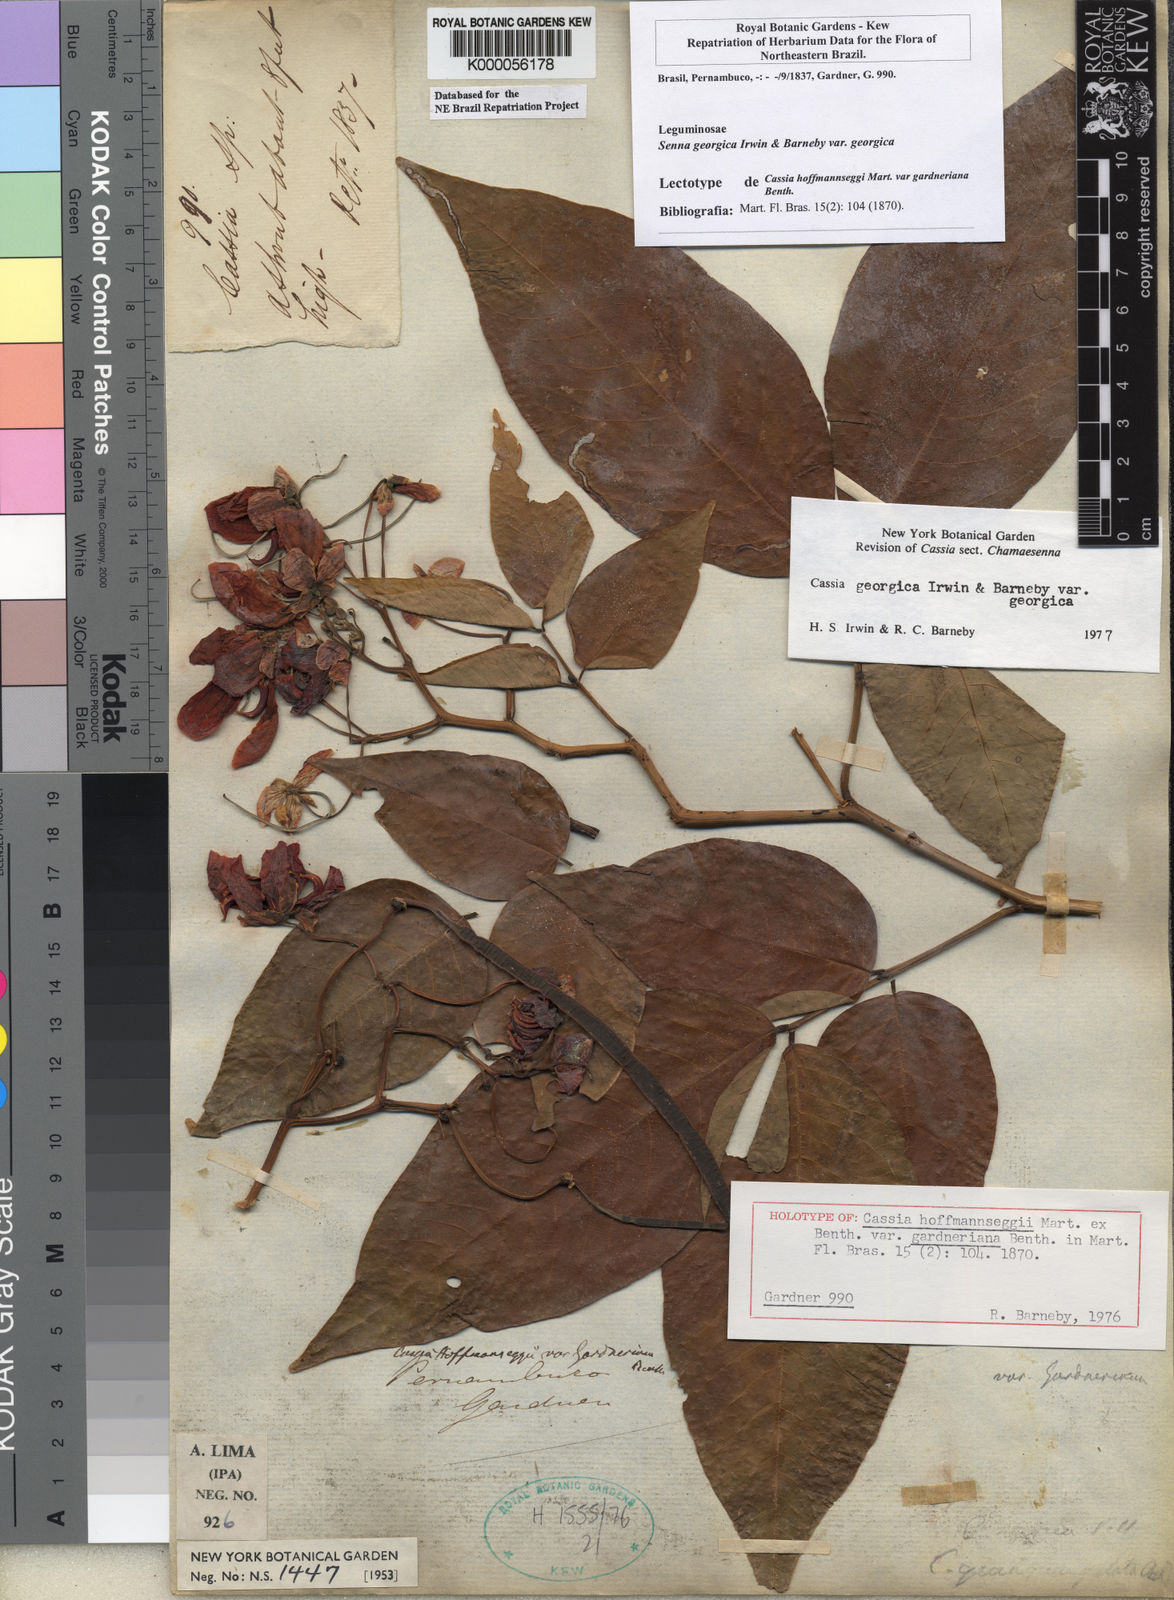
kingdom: Plantae
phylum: Tracheophyta
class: Magnoliopsida
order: Fabales
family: Fabaceae
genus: Senna
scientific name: Senna georgica
